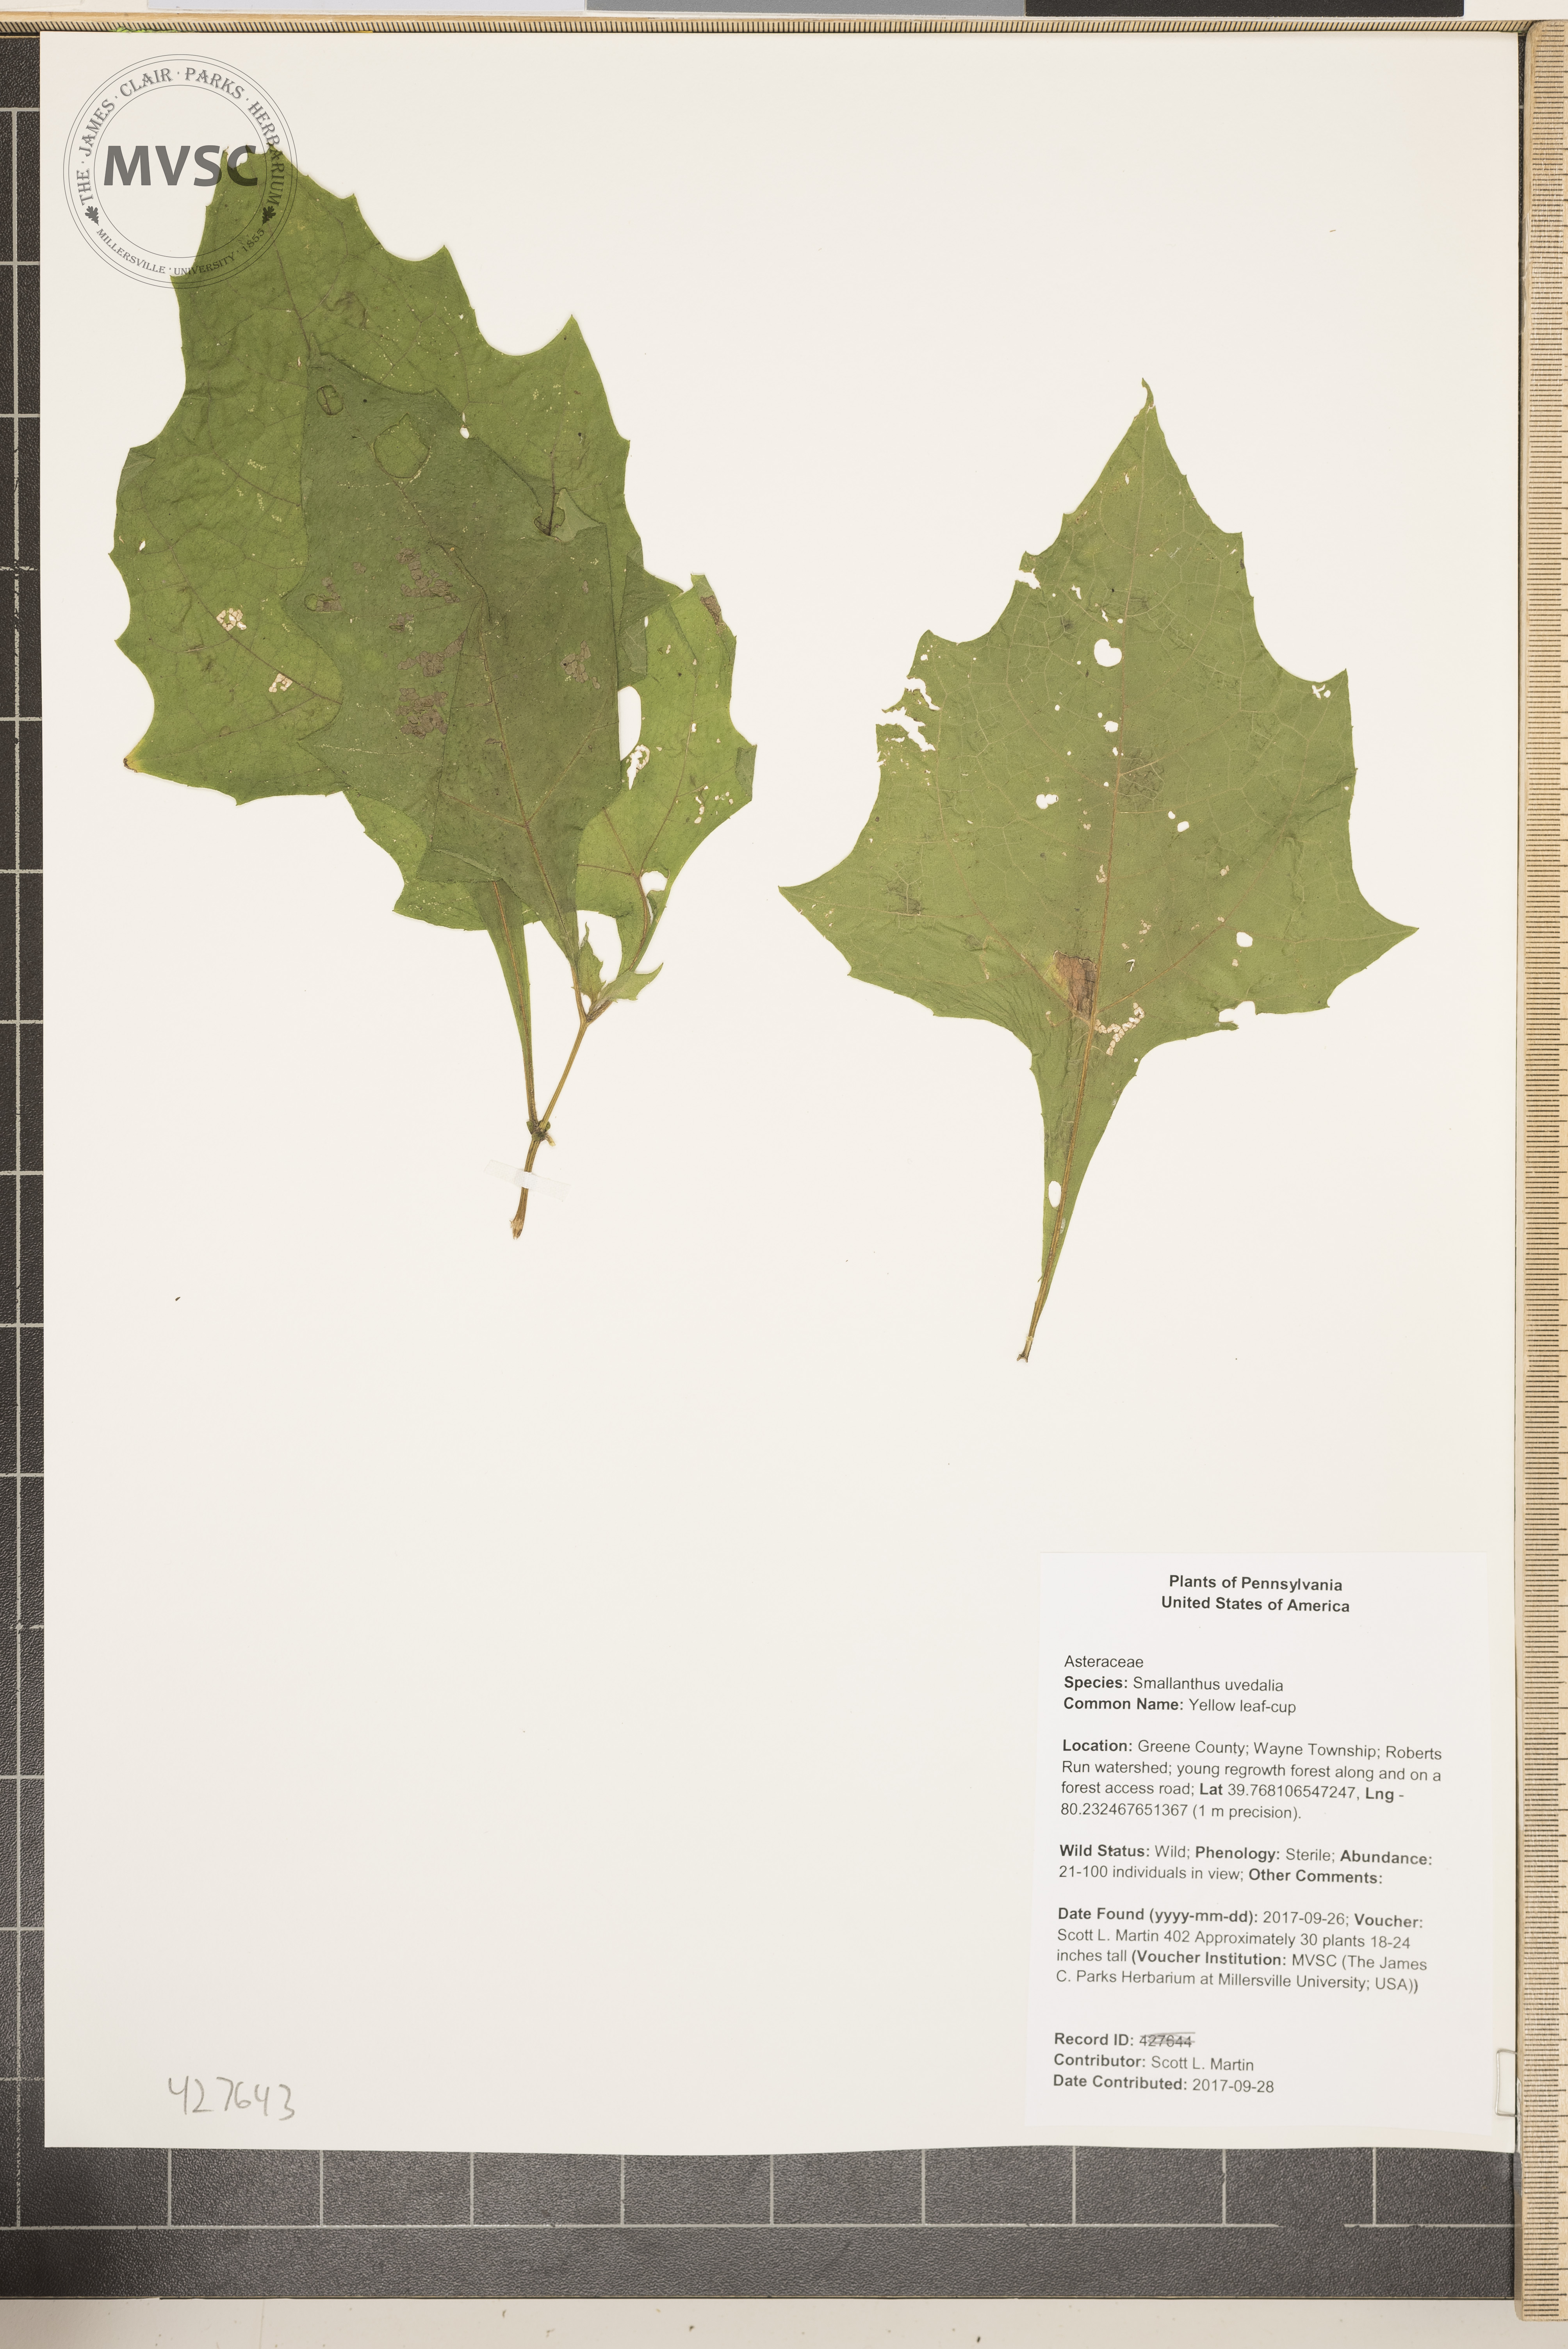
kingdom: Plantae
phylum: Tracheophyta
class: Magnoliopsida
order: Asterales
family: Asteraceae
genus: Smallanthus
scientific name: Smallanthus uvedalia
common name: Yellow leaf-cup
